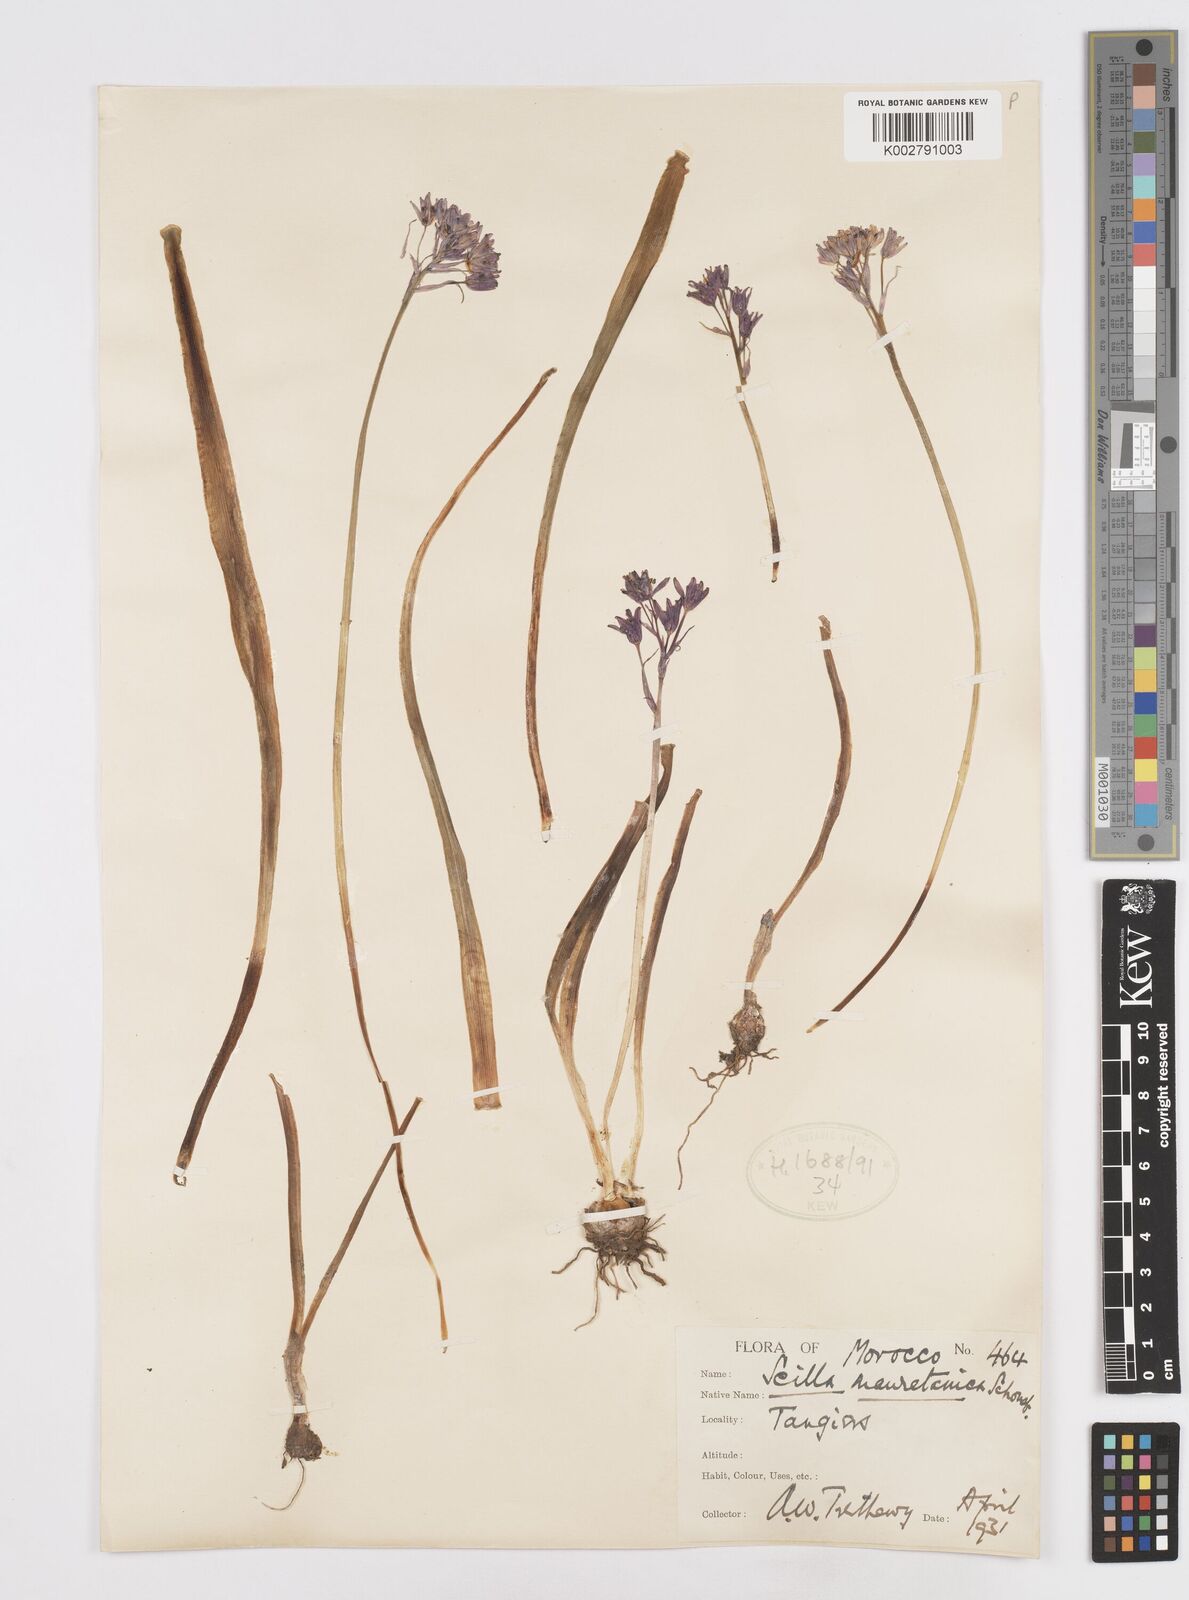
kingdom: Plantae
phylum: Tracheophyta
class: Liliopsida
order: Asparagales
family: Asparagaceae
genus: Hyacinthoides
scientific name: Hyacinthoides mauritanica
